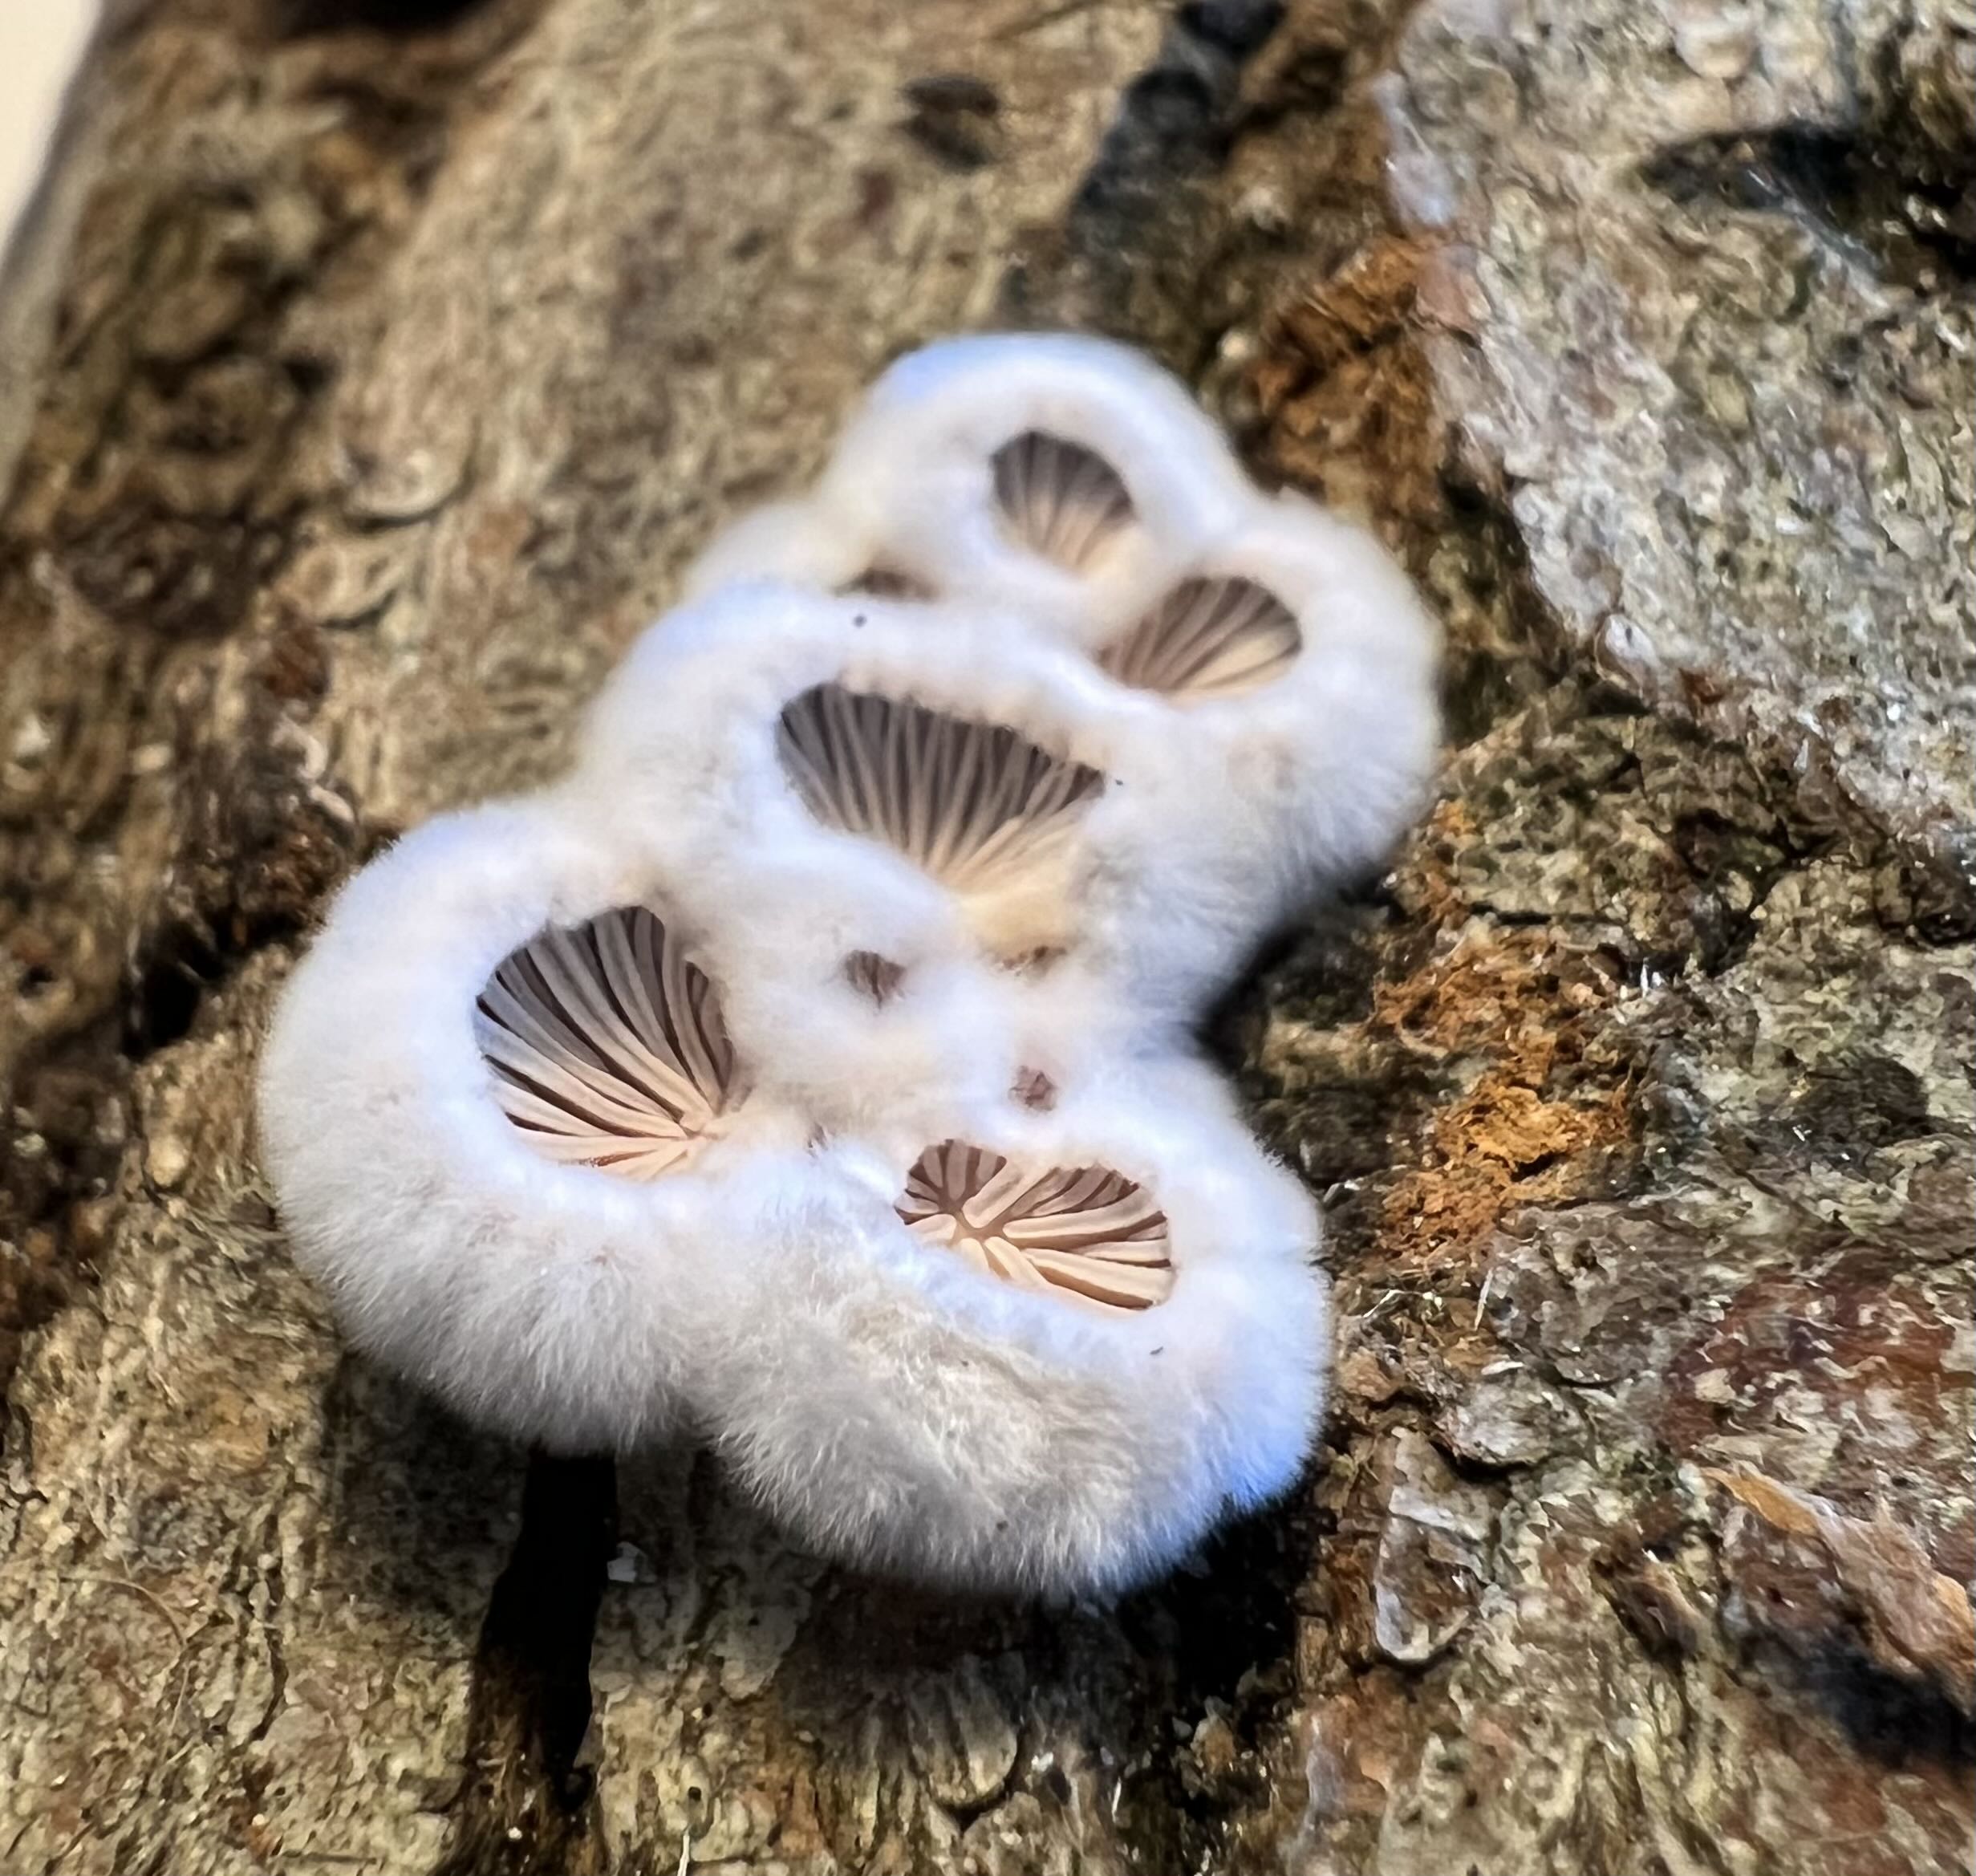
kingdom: Fungi
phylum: Basidiomycota
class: Agaricomycetes
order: Agaricales
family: Schizophyllaceae
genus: Schizophyllum
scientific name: Schizophyllum commune
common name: kløvblad
